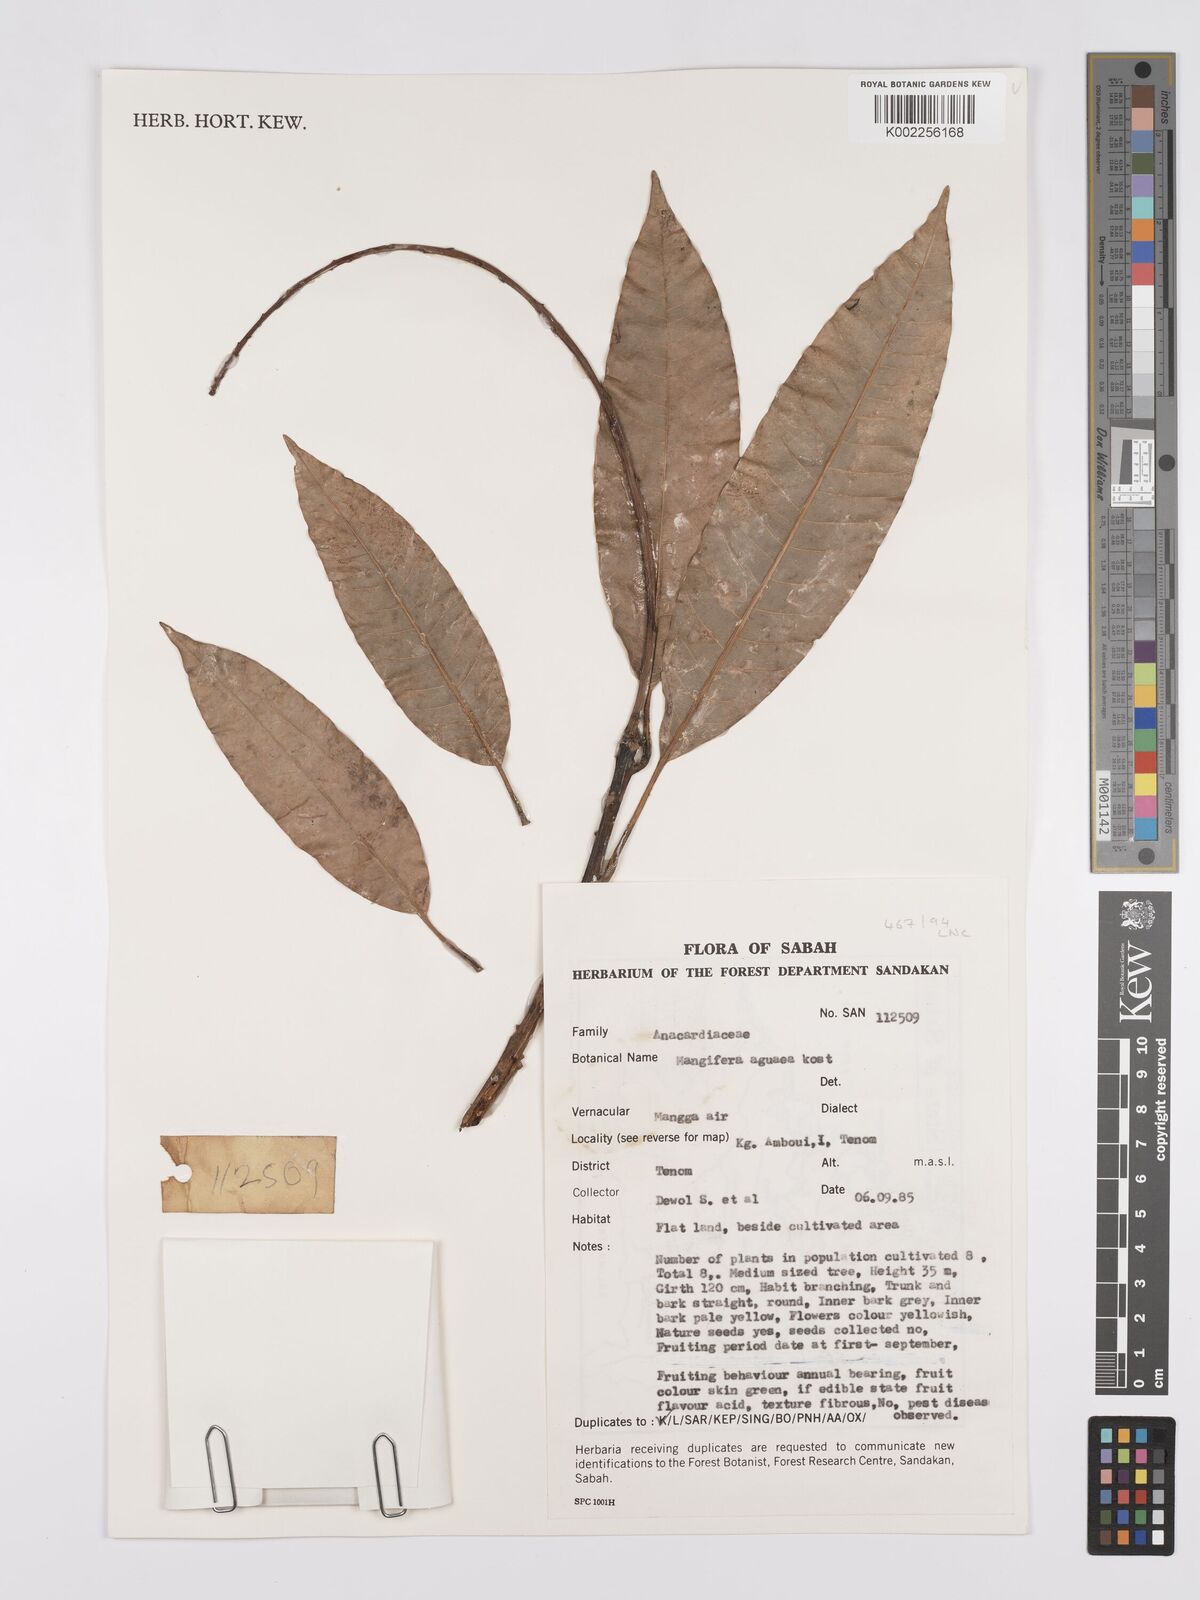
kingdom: Plantae
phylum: Tracheophyta
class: Magnoliopsida
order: Sapindales
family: Anacardiaceae
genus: Mangifera
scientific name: Mangifera laurina
